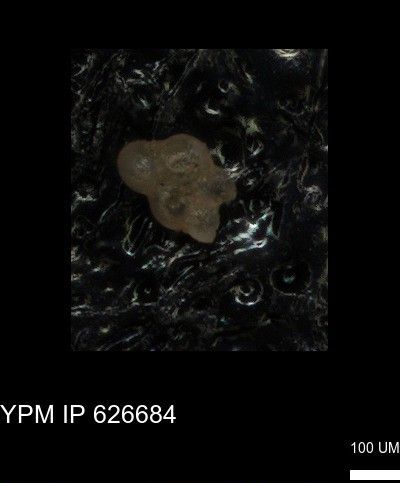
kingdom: Chromista
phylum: Foraminifera
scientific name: Foraminifera
